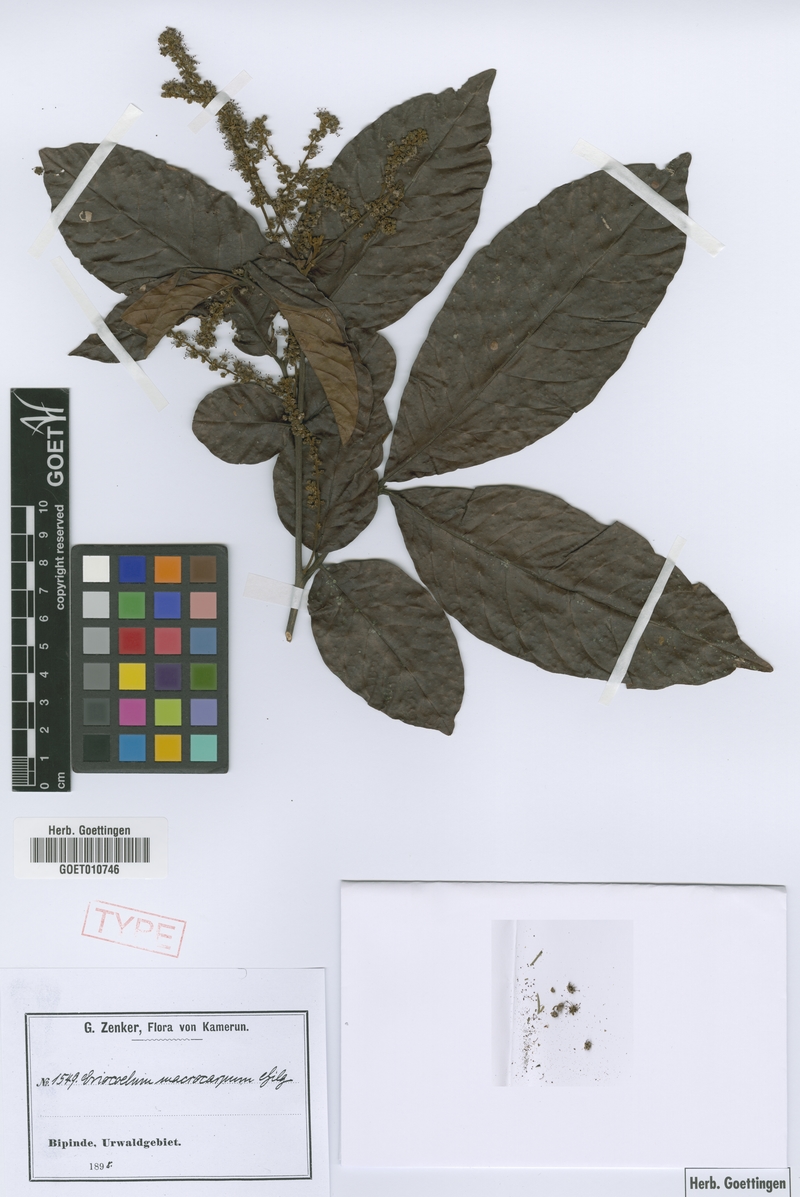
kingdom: Plantae
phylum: Tracheophyta
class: Magnoliopsida
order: Sapindales
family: Sapindaceae
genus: Eriocoelum
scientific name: Eriocoelum macrocarpum
